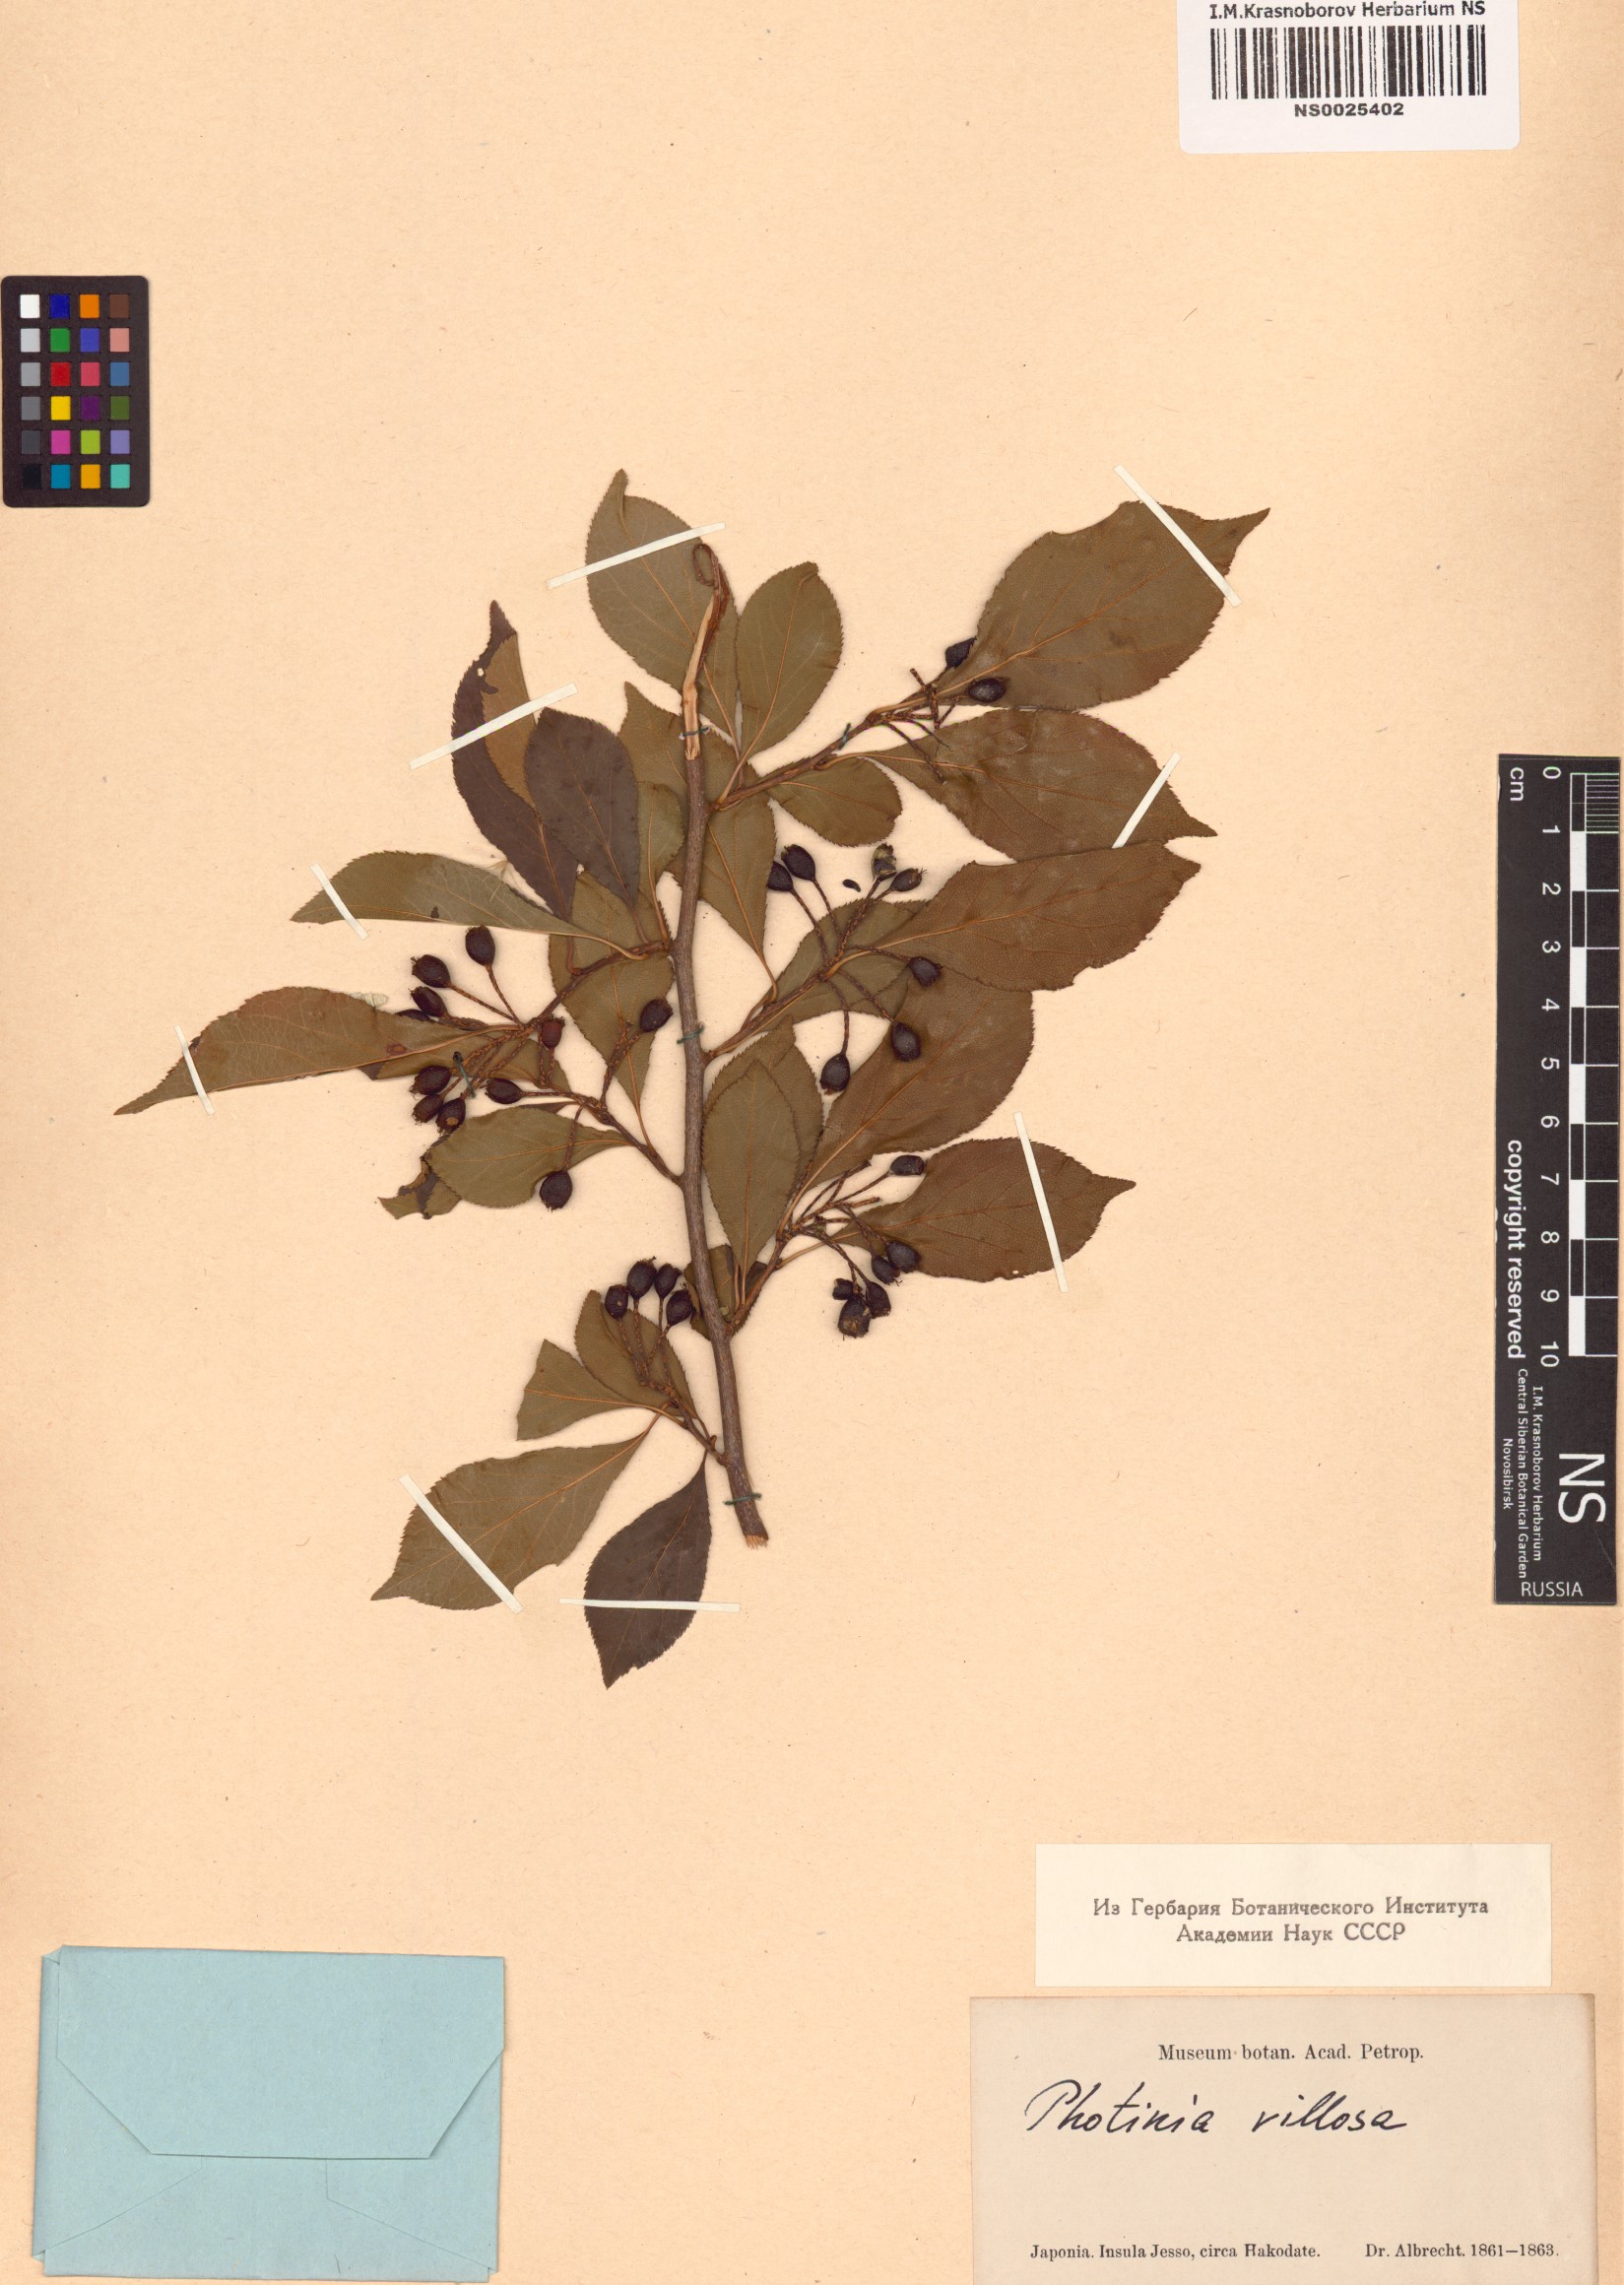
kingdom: Plantae
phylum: Tracheophyta
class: Magnoliopsida
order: Rosales
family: Rosaceae
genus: Pourthiaea
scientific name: Pourthiaea villosa
